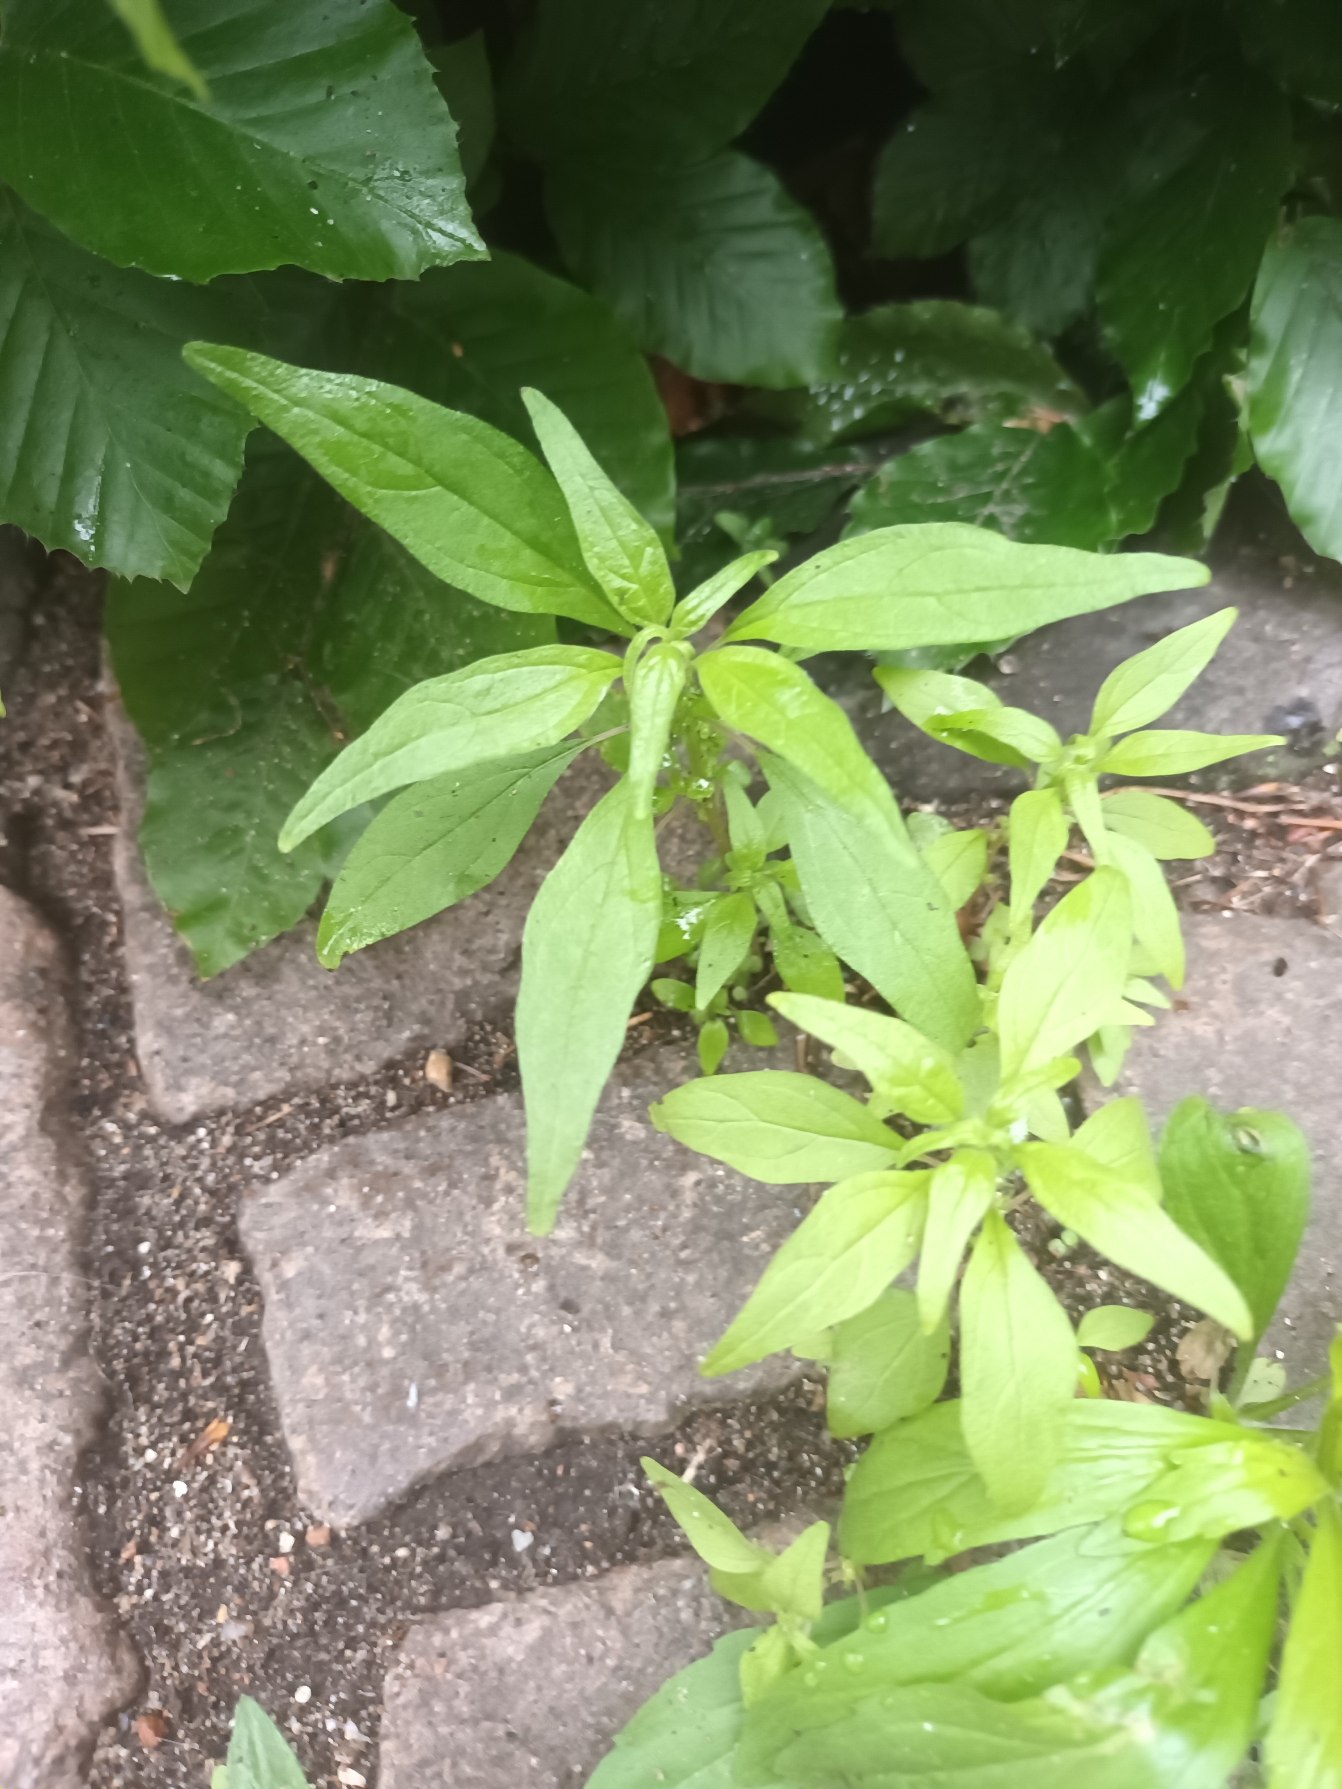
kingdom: Plantae
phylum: Tracheophyta
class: Magnoliopsida
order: Rosales
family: Urticaceae
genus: Parietaria
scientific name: Parietaria pensylvanica
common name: Amerikansk springknap
